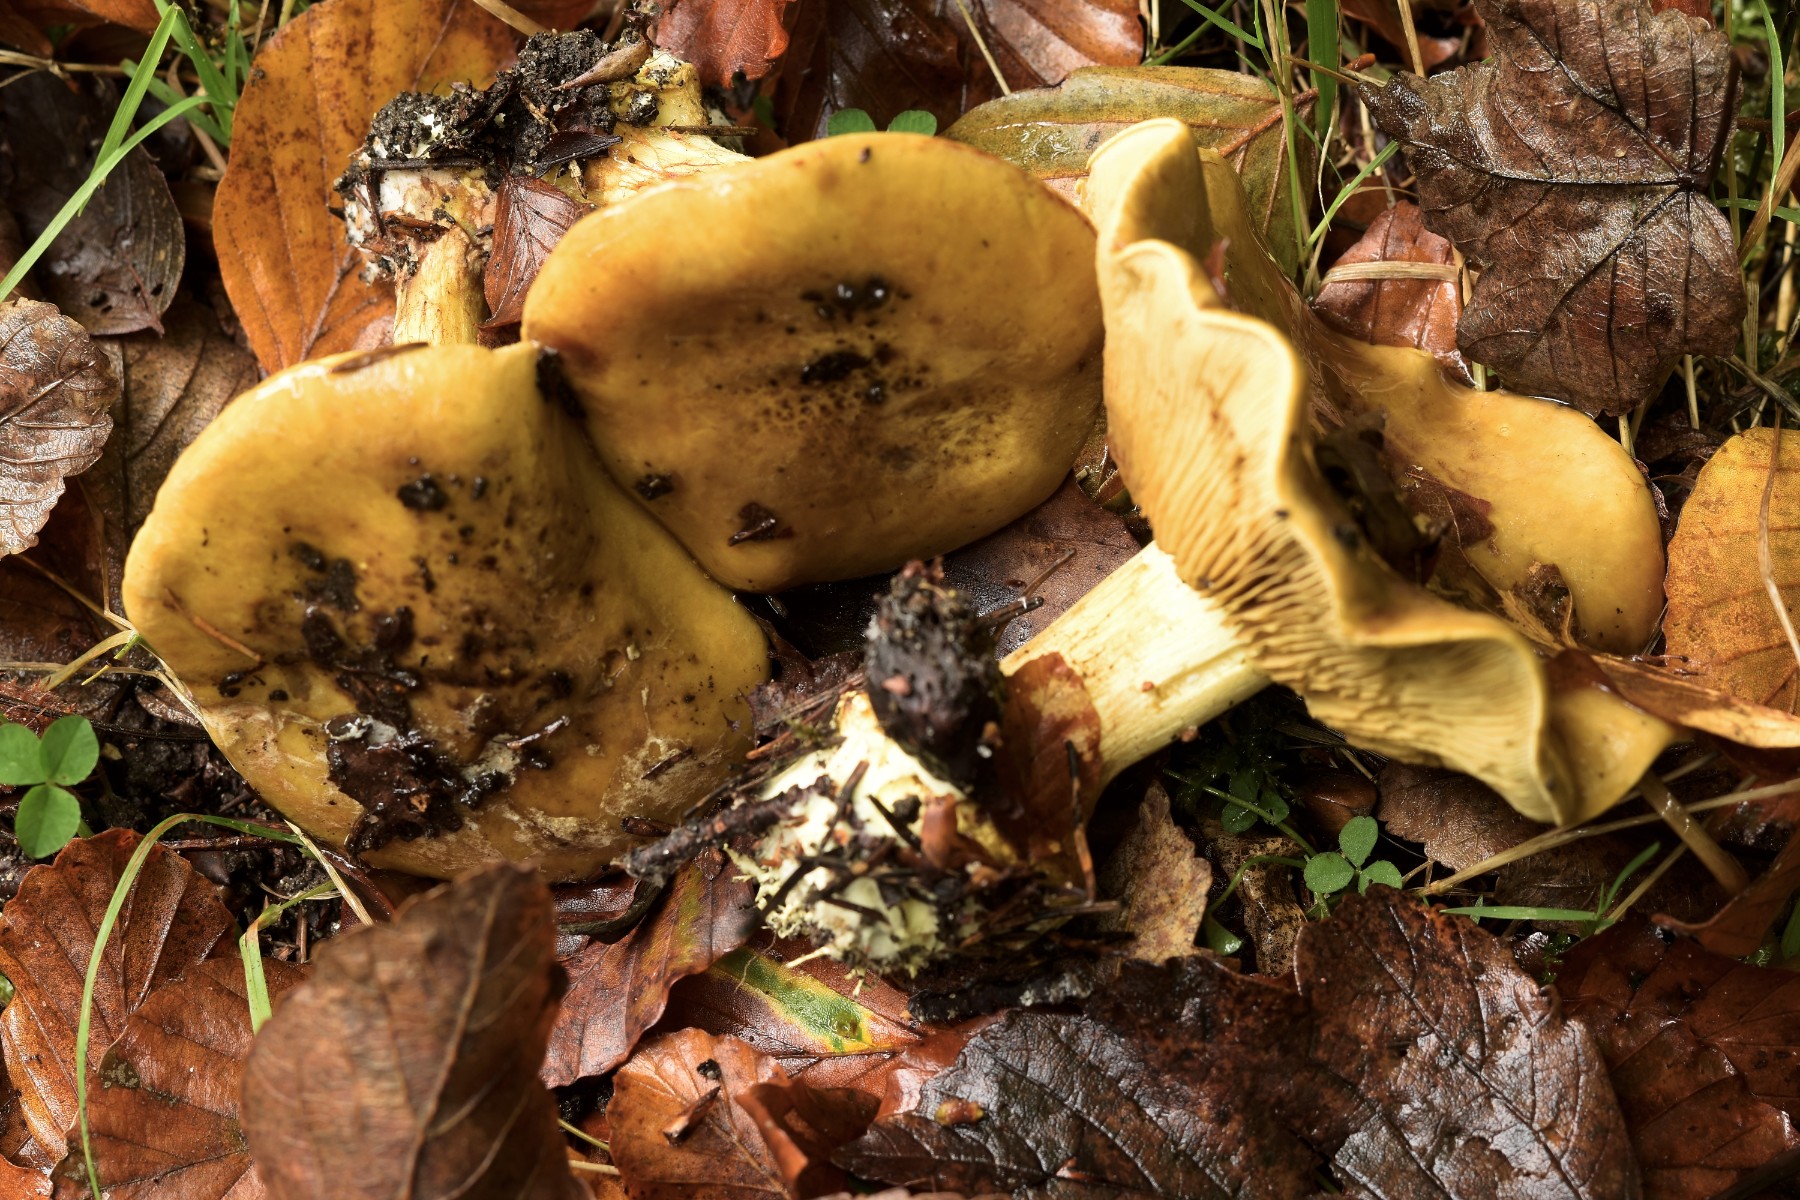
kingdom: Fungi
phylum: Basidiomycota
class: Agaricomycetes
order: Agaricales
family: Cortinariaceae
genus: Calonarius
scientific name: Calonarius citrinus
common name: citrongul slørhat
